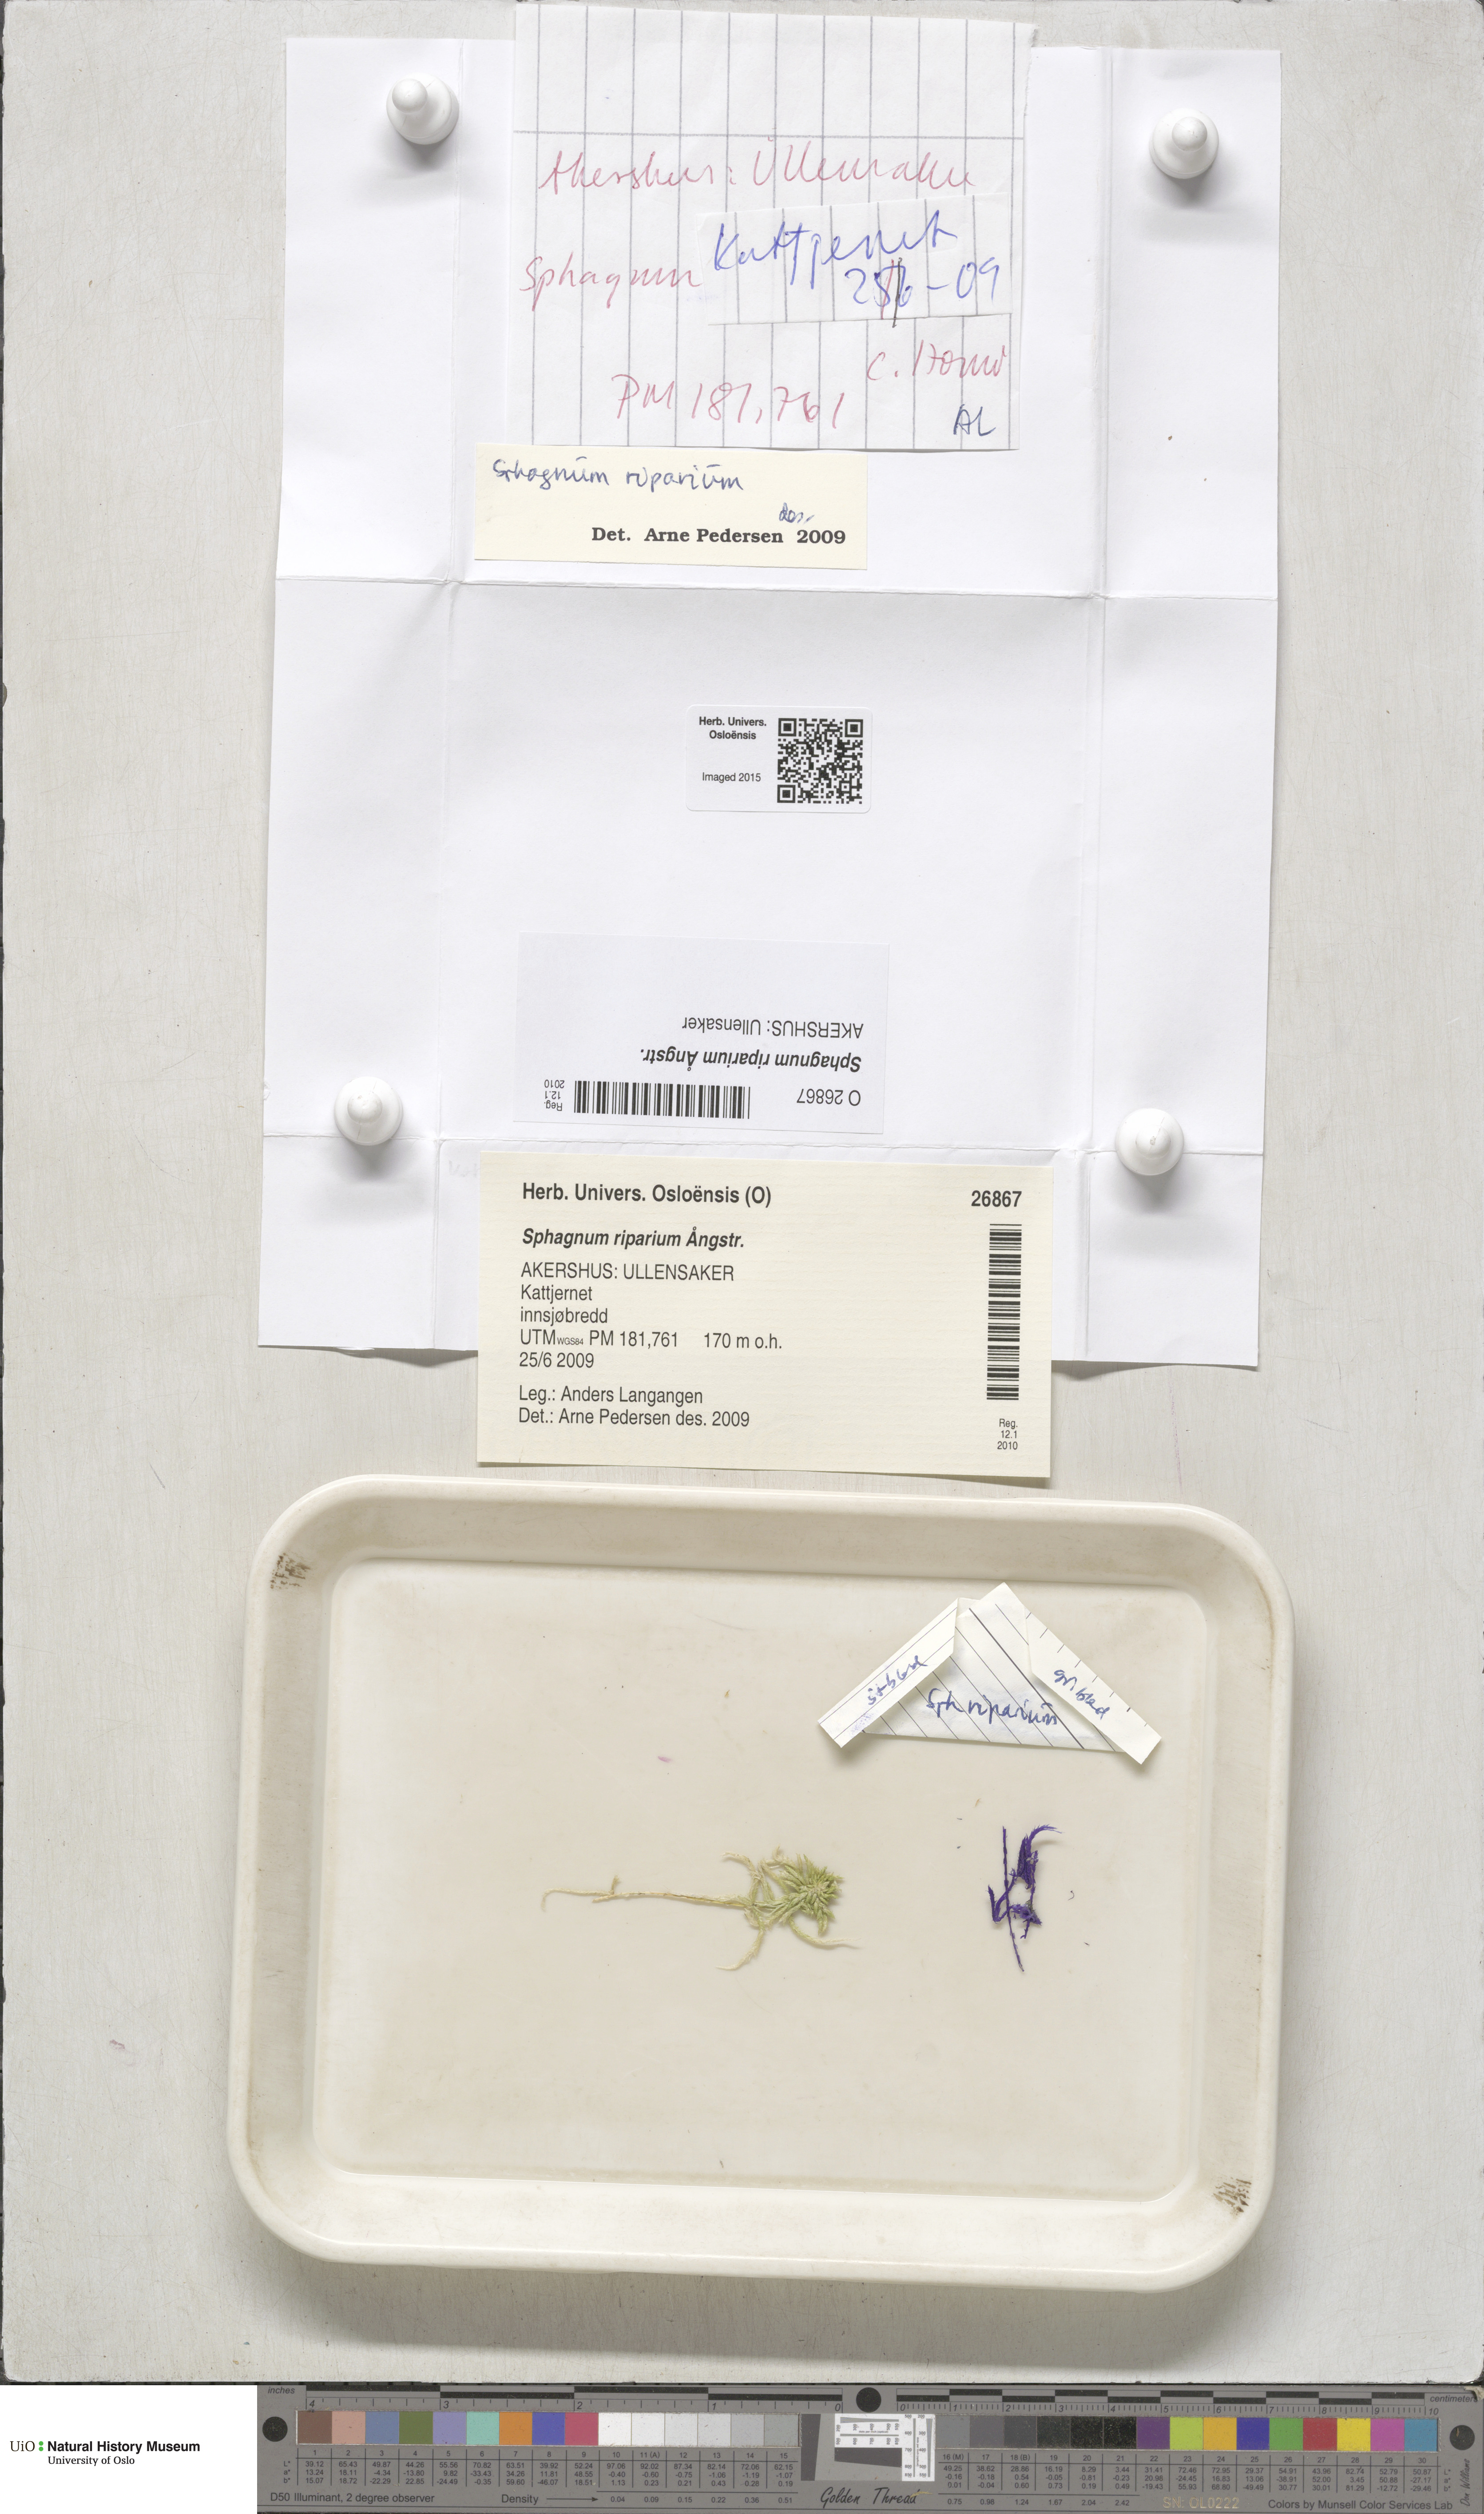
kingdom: Plantae
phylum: Bryophyta
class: Sphagnopsida
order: Sphagnales
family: Sphagnaceae
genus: Sphagnum
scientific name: Sphagnum riparium
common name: Streamside peat moss
